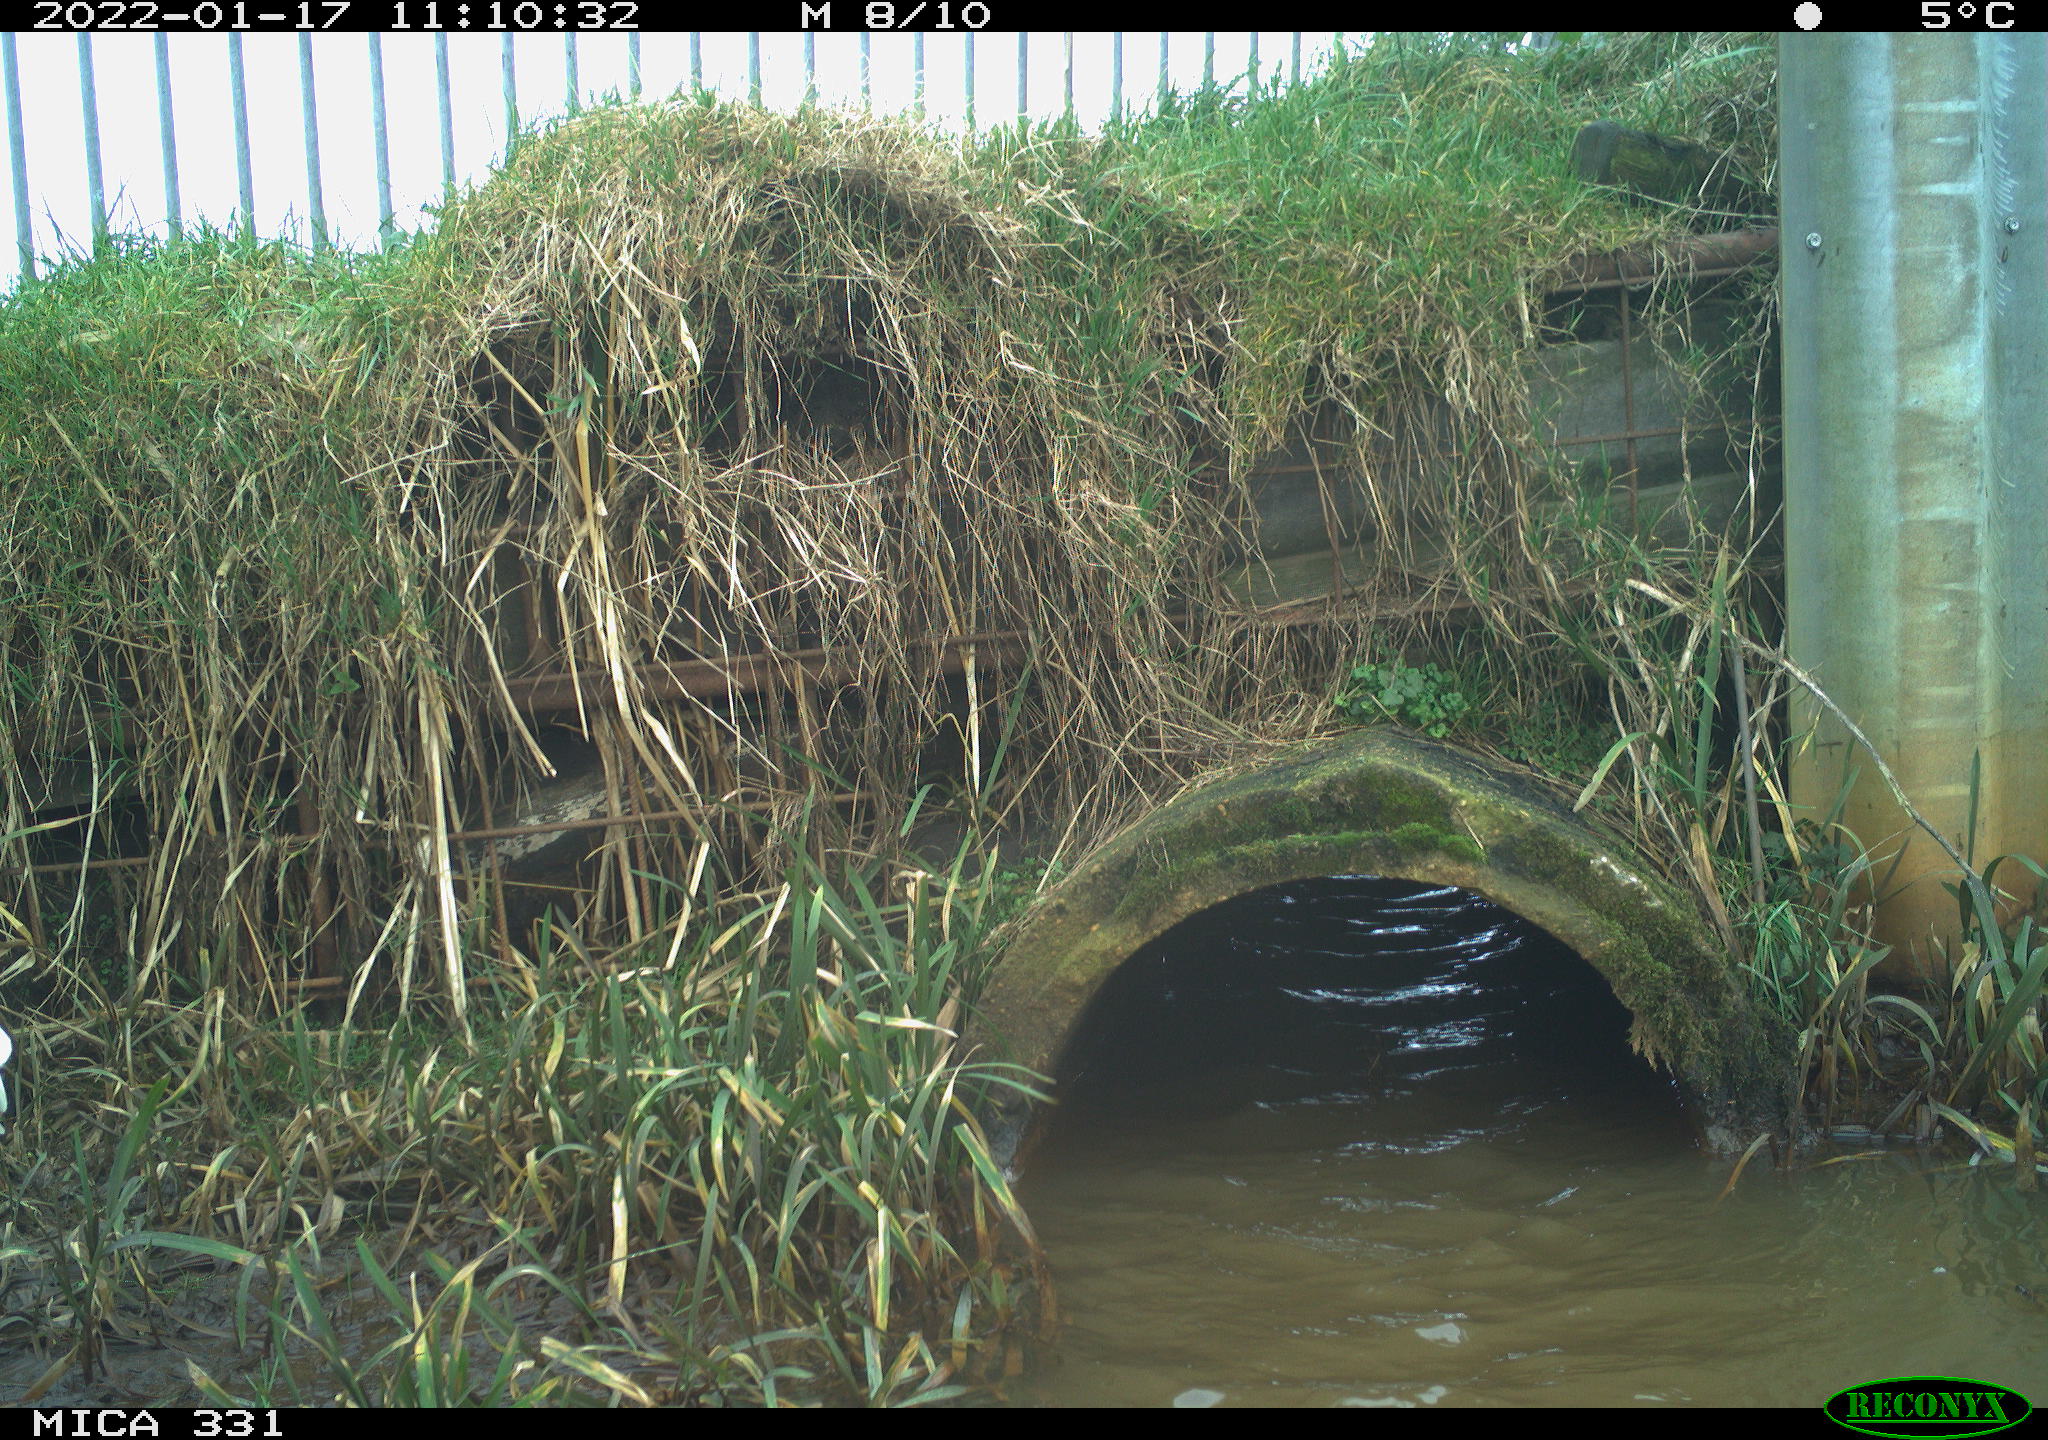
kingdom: Animalia
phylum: Chordata
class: Aves
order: Pelecaniformes
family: Ardeidae
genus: Ardea
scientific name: Ardea alba
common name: Great egret
